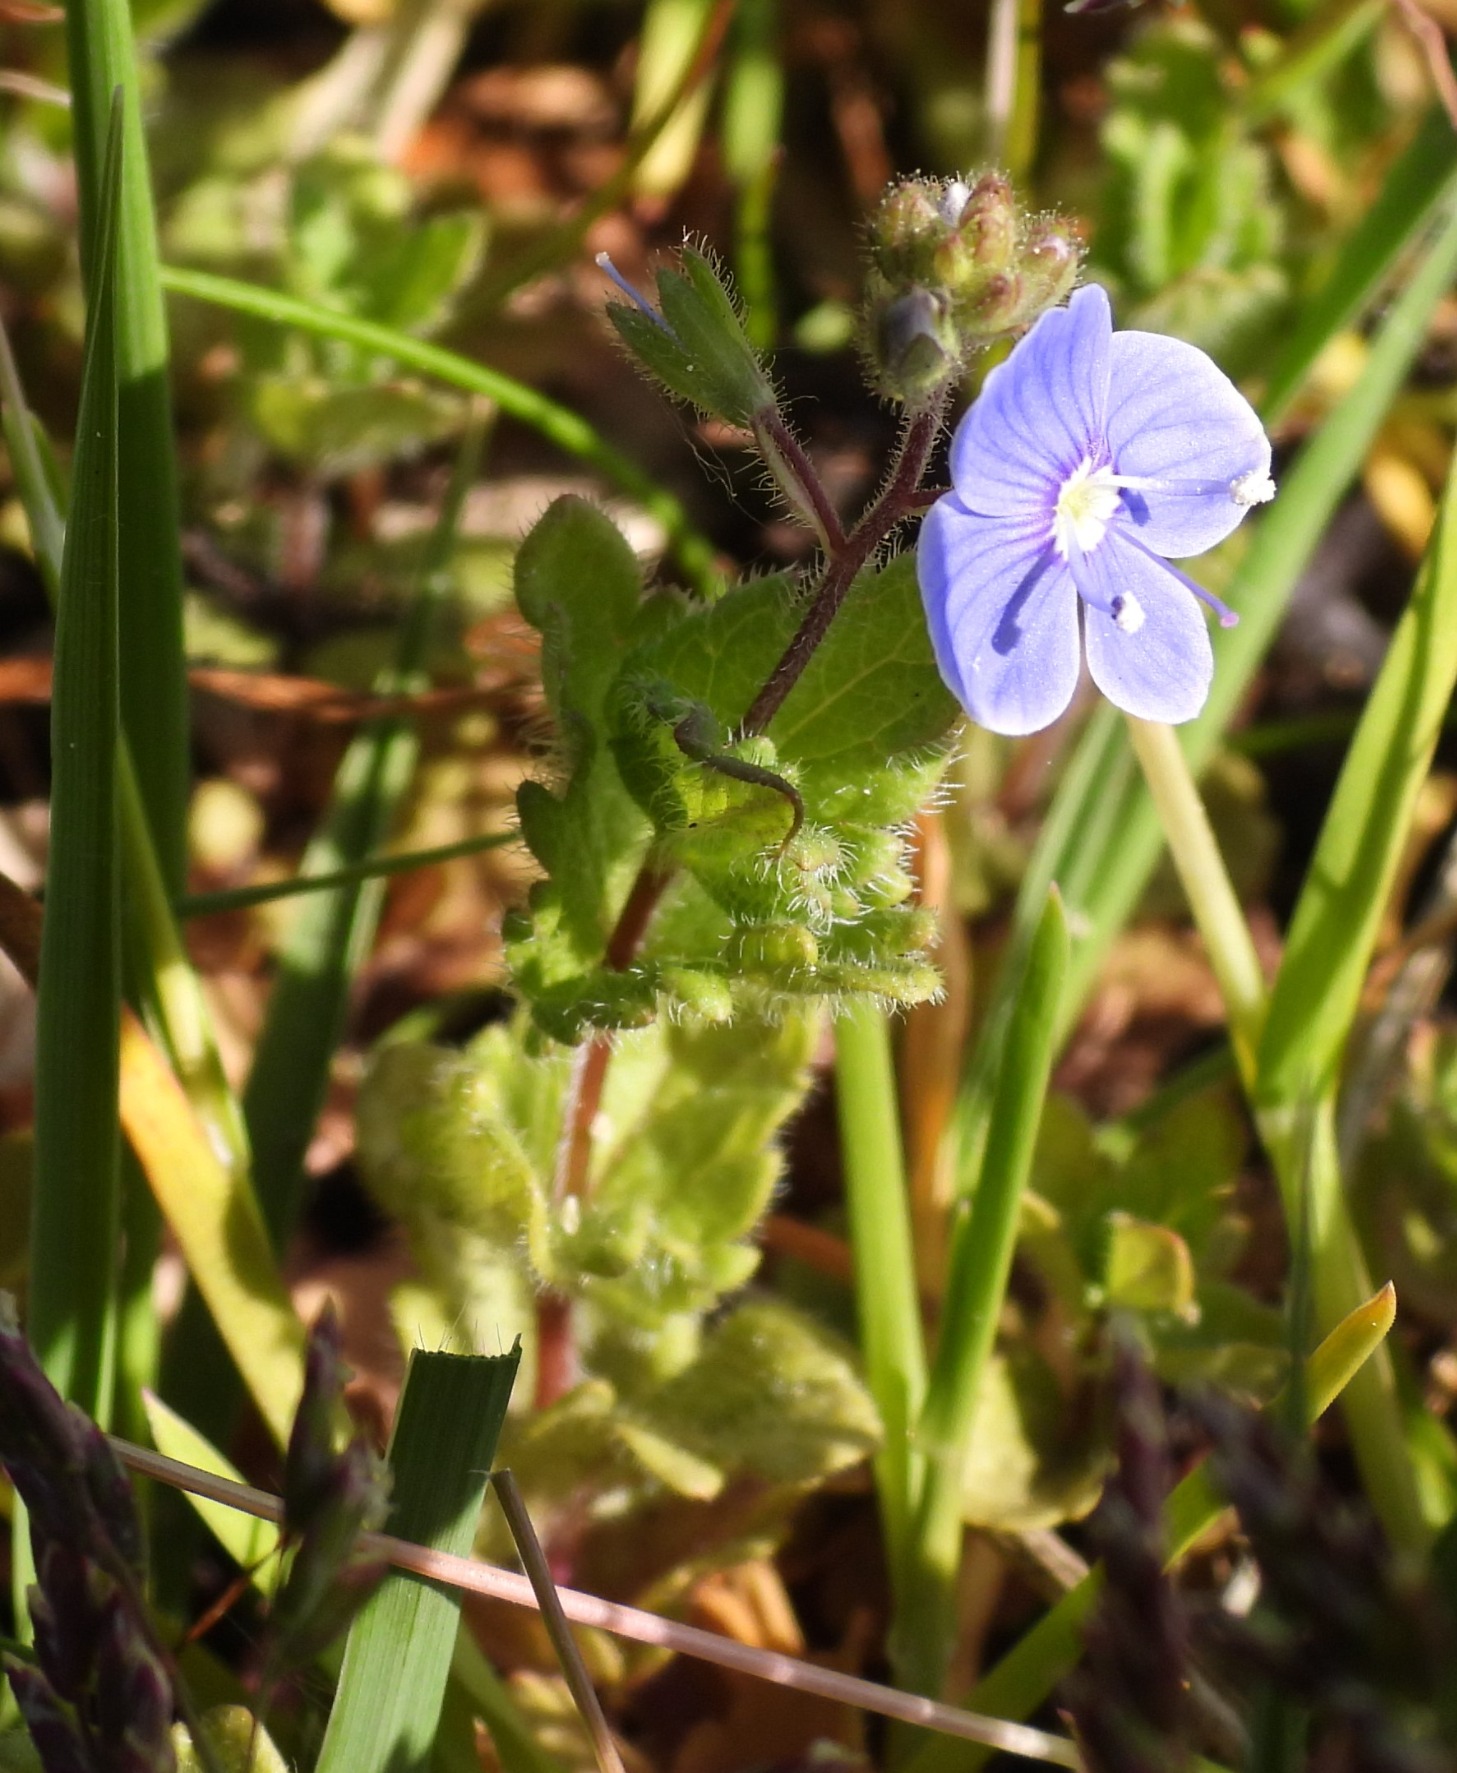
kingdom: Plantae
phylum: Tracheophyta
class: Magnoliopsida
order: Lamiales
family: Plantaginaceae
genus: Veronica
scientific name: Veronica chamaedrys
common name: Tveskægget ærenpris
